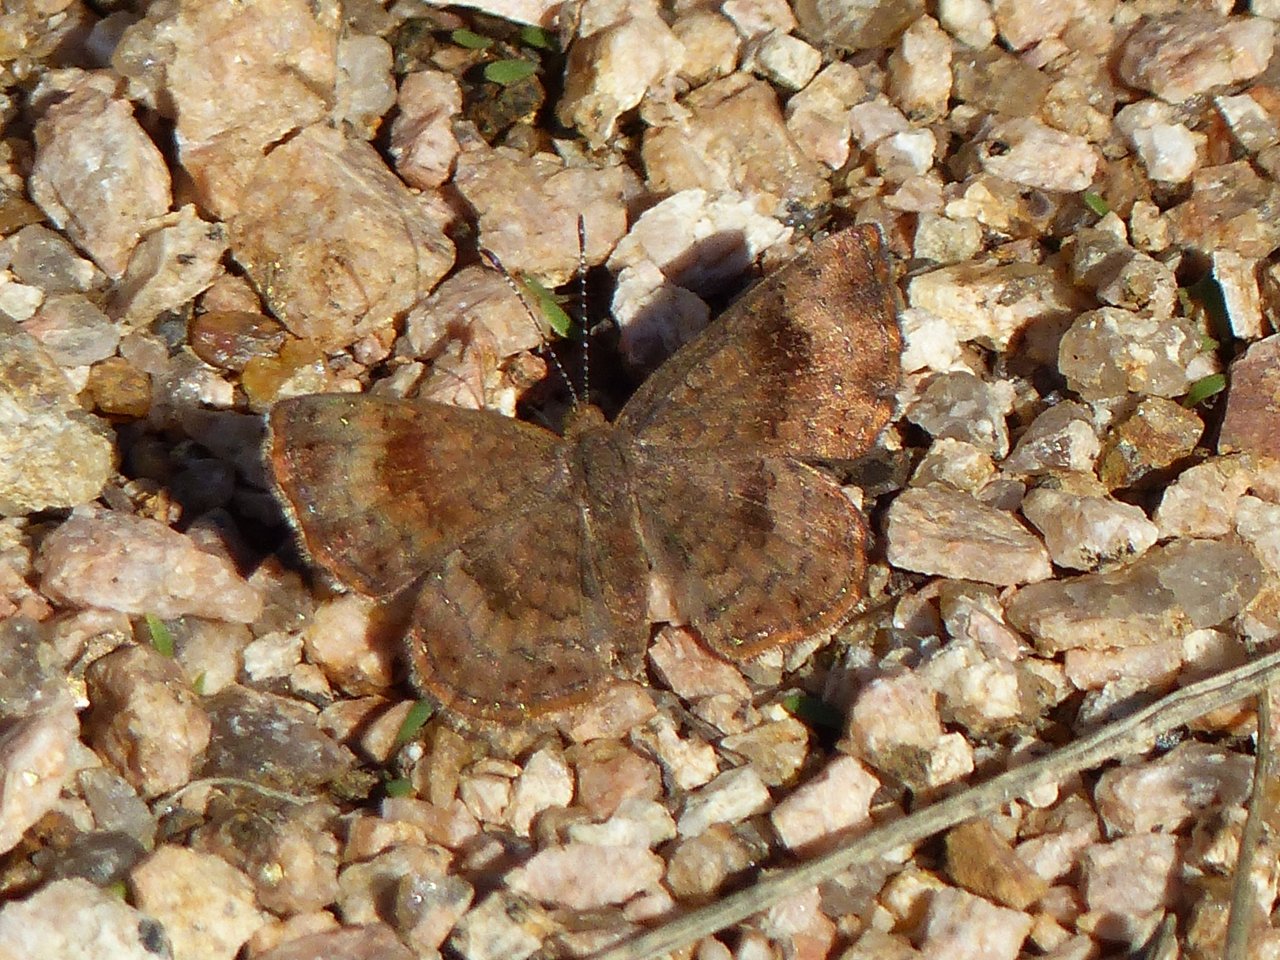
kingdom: Animalia
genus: Calephelis
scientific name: Calephelis perditalis
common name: Rounded Metalmark
